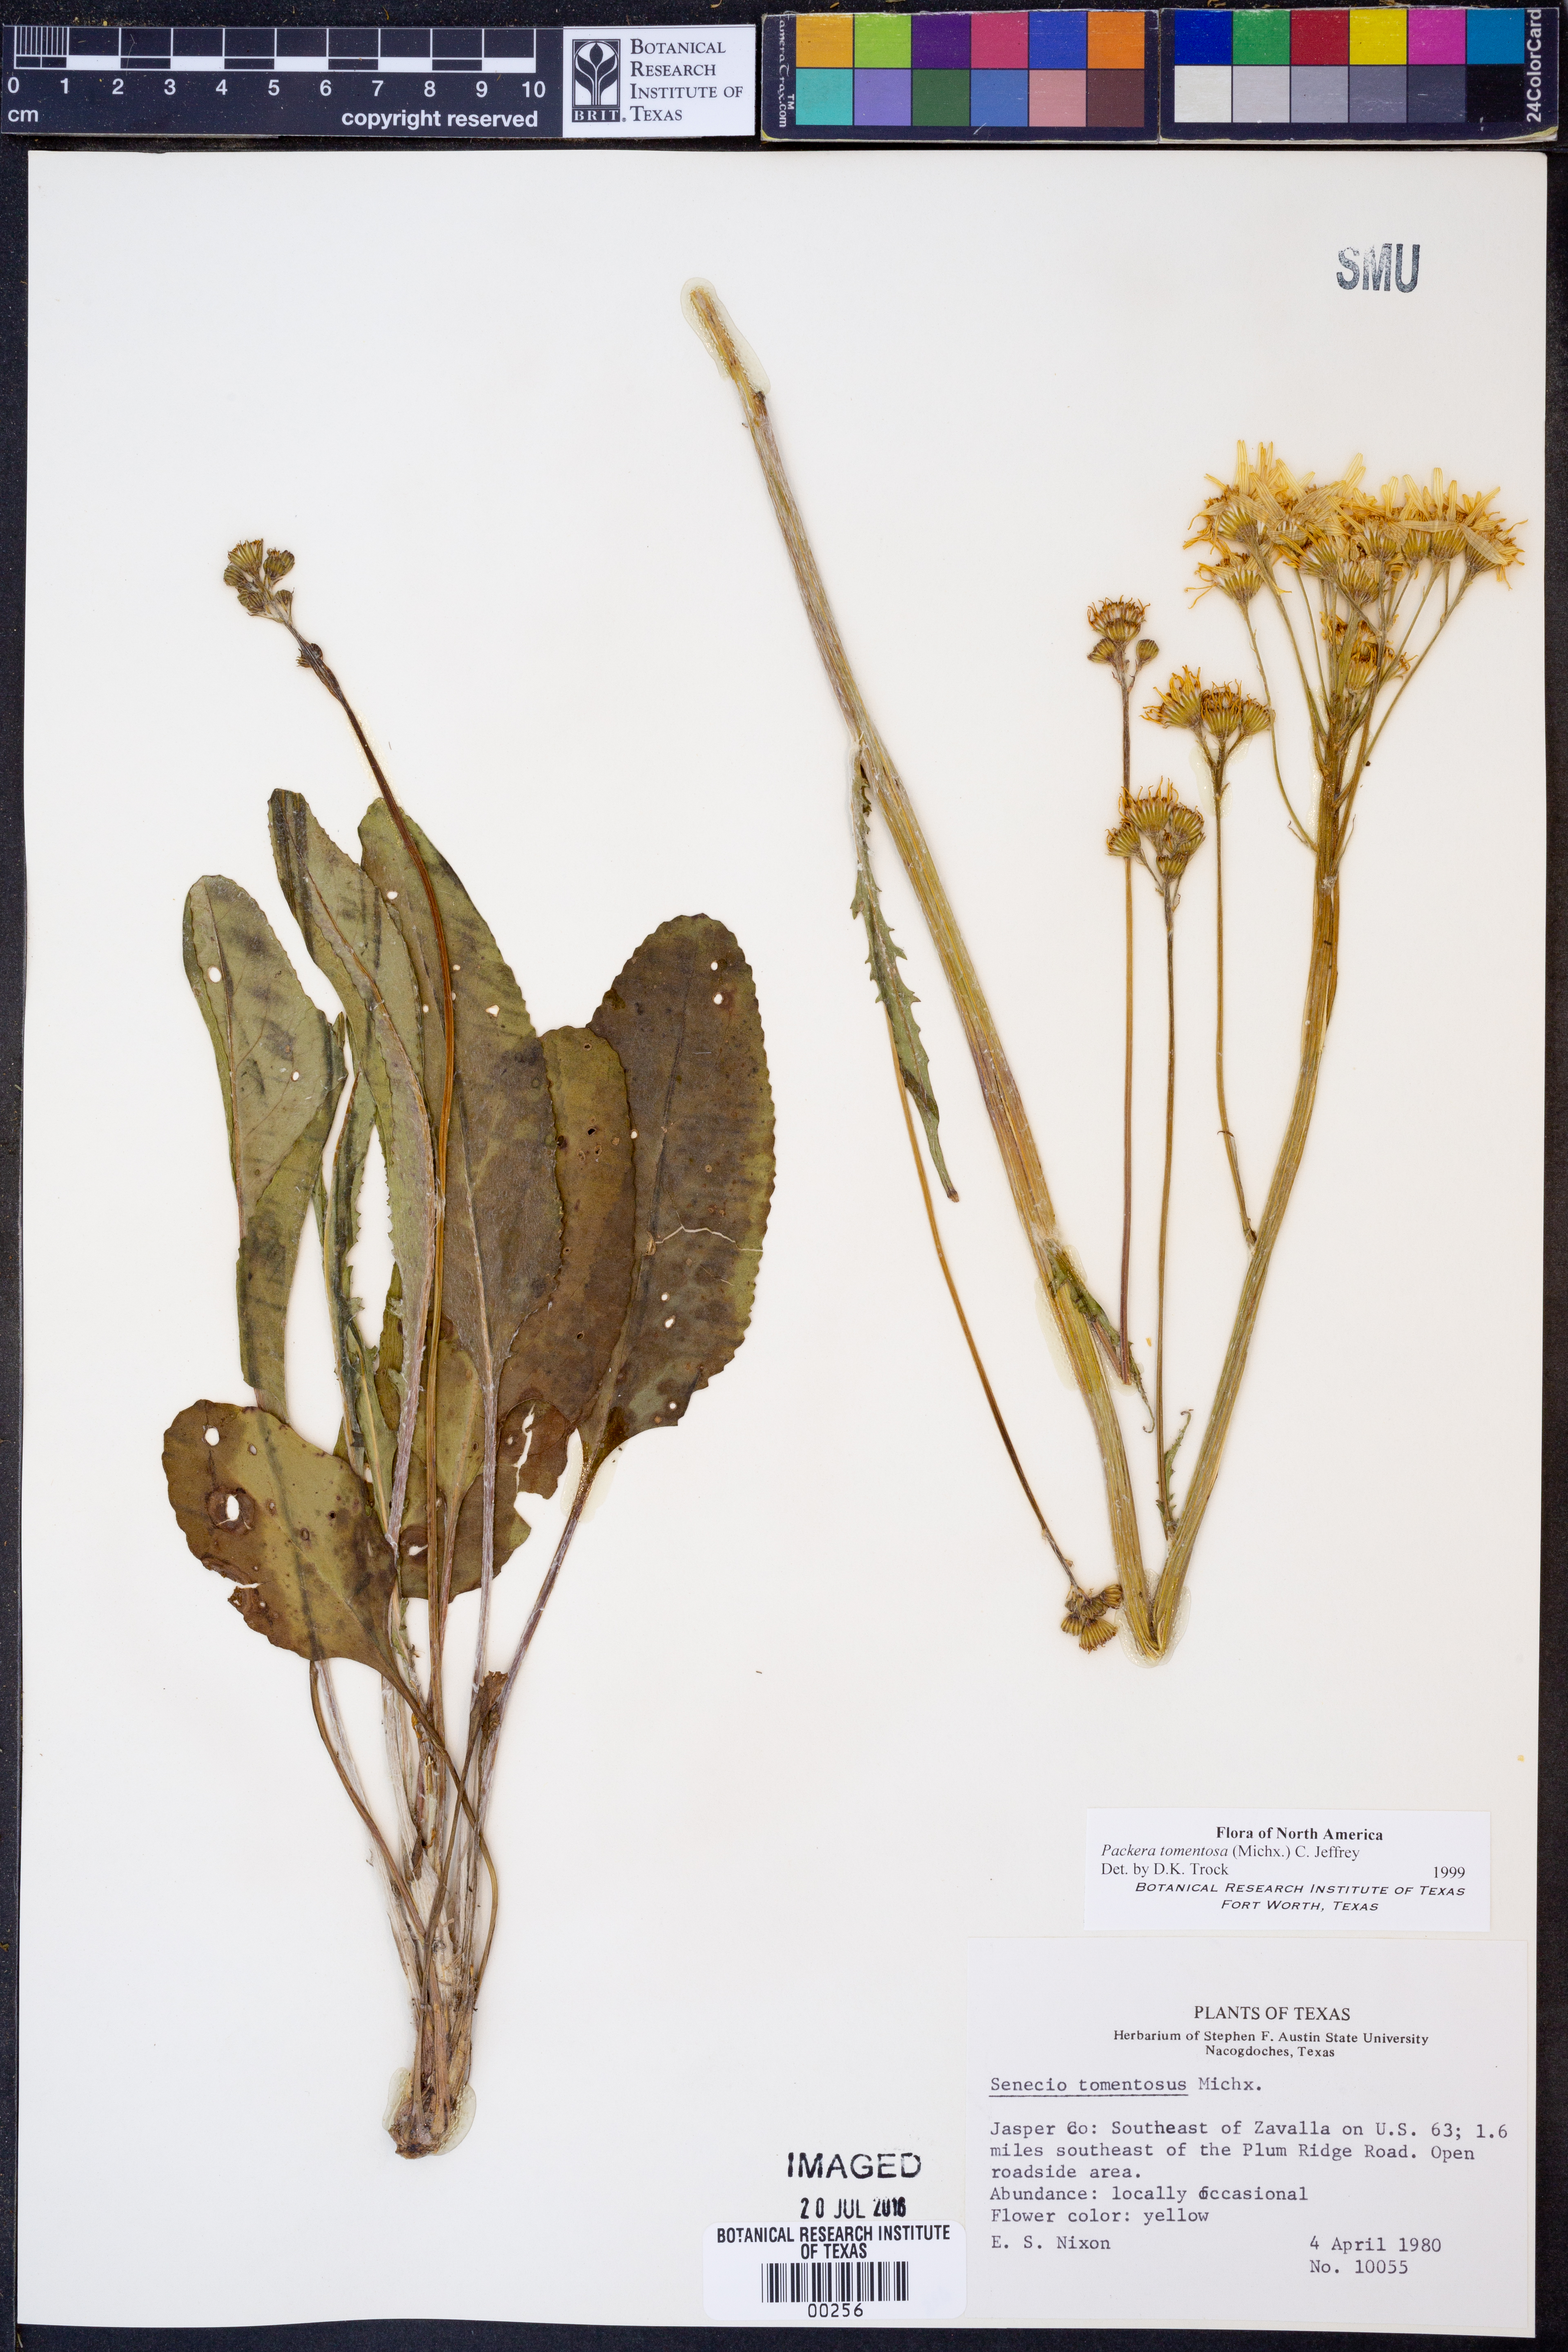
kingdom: Plantae
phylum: Tracheophyta
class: Magnoliopsida
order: Asterales
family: Asteraceae
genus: Packera
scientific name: Packera dubia
